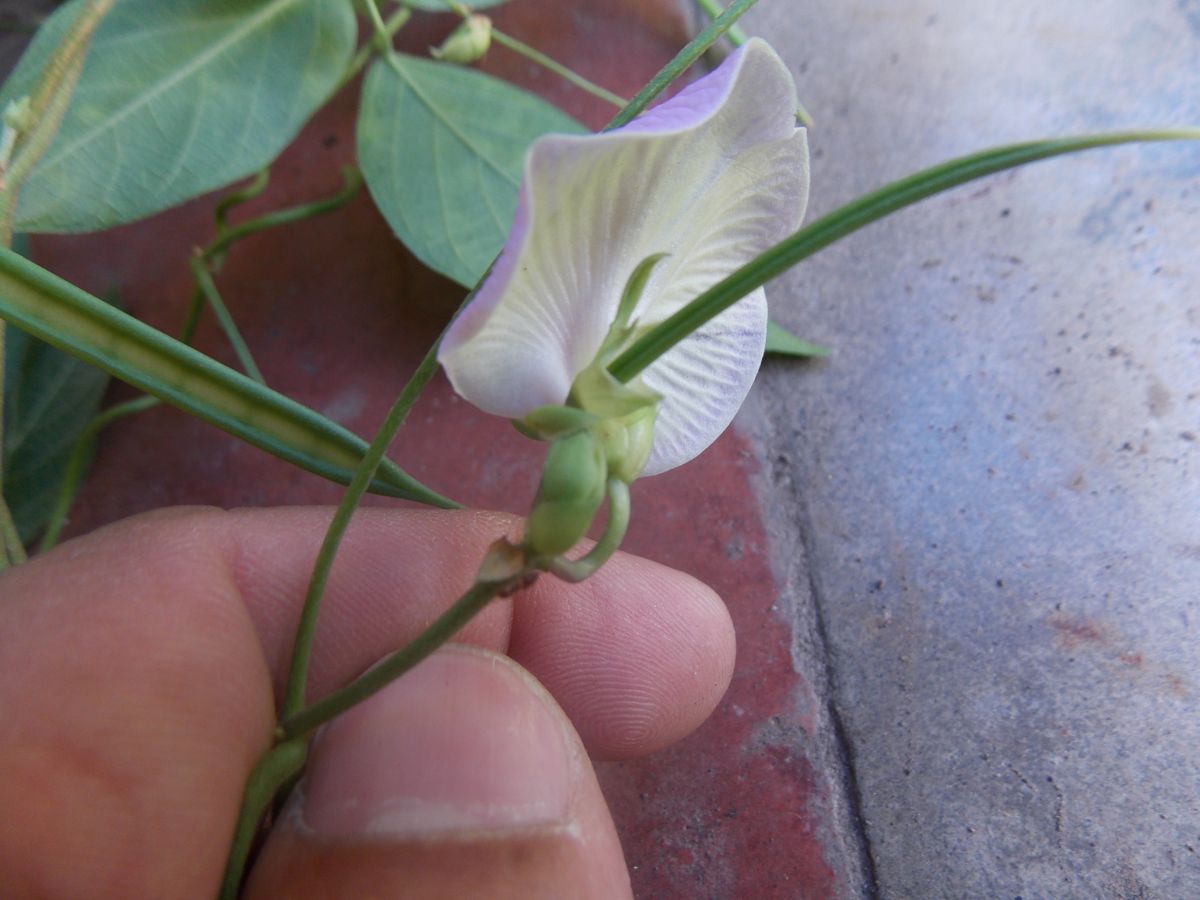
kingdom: Plantae
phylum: Tracheophyta
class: Magnoliopsida
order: Fabales
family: Fabaceae
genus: Centrosema
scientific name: Centrosema molle
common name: Soft butterfly pea
